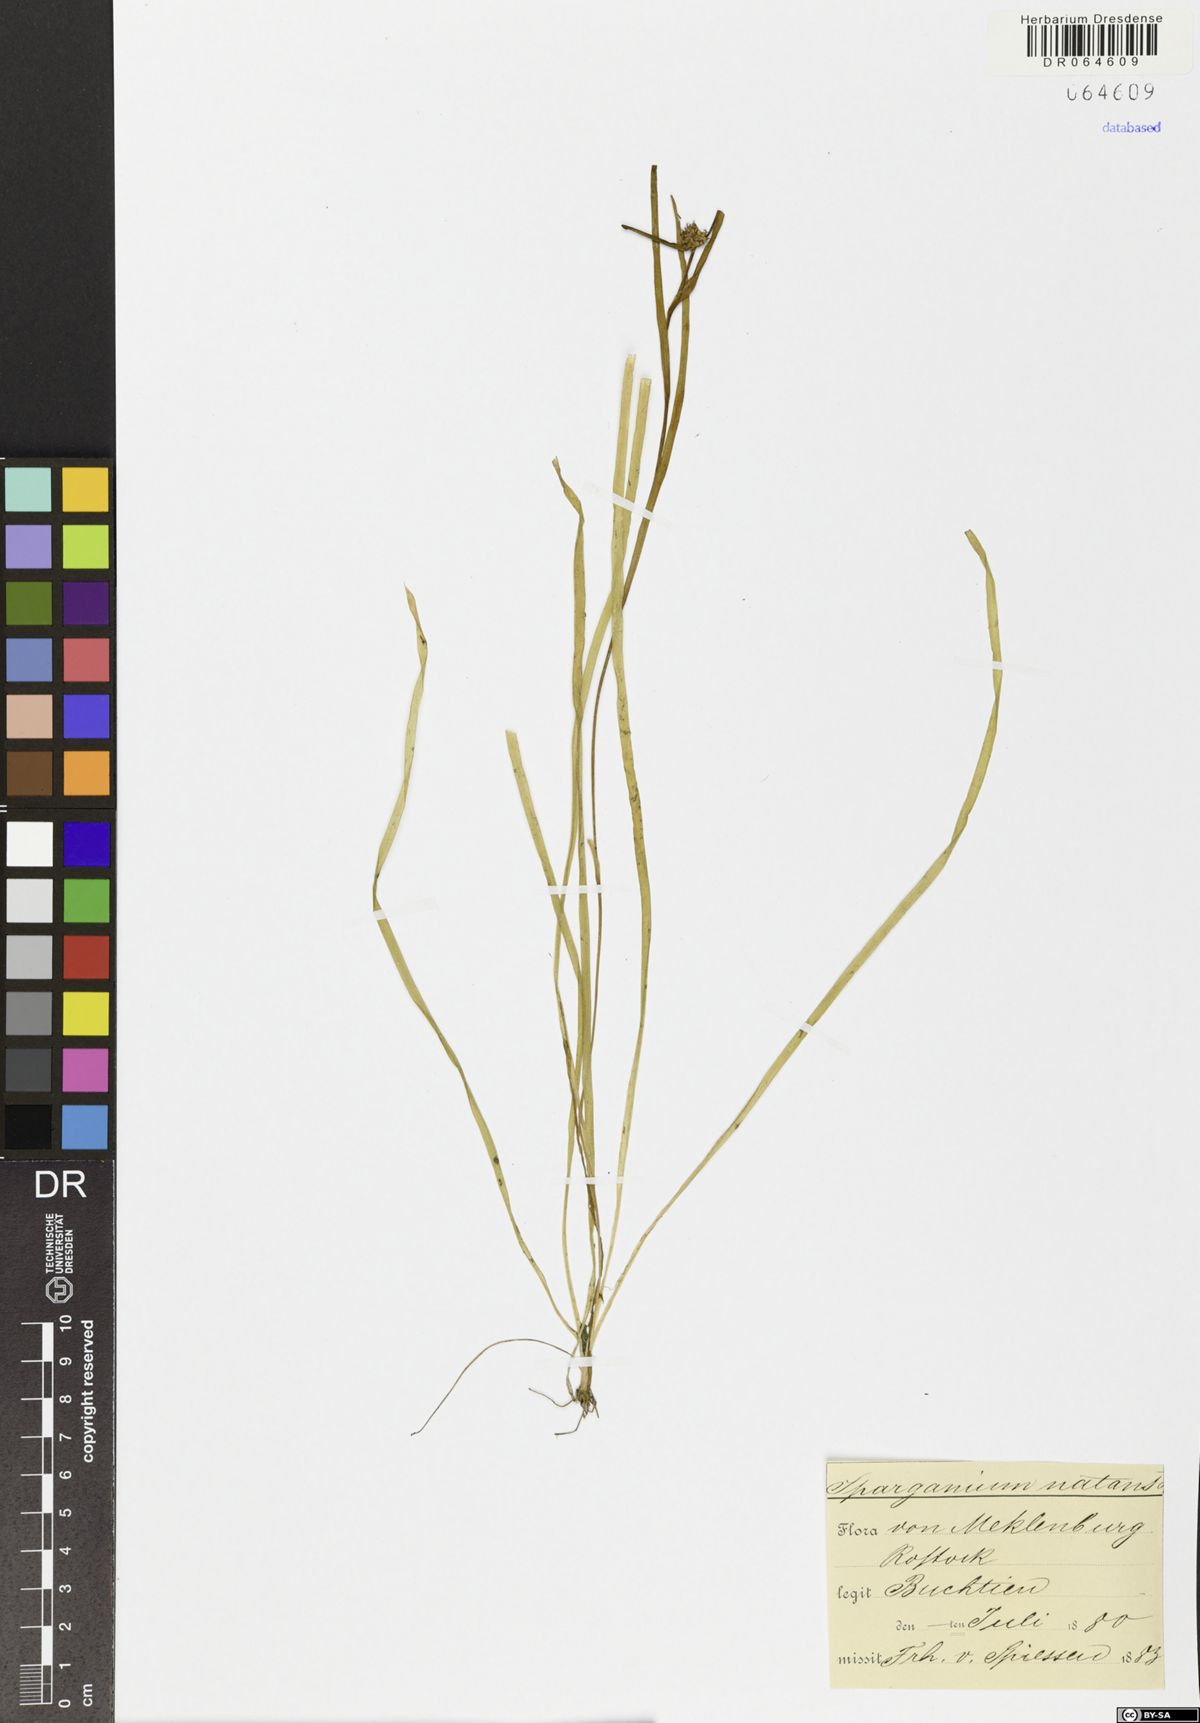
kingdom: Plantae
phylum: Tracheophyta
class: Liliopsida
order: Poales
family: Typhaceae
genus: Sparganium
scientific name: Sparganium natans
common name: Least bur-reed
